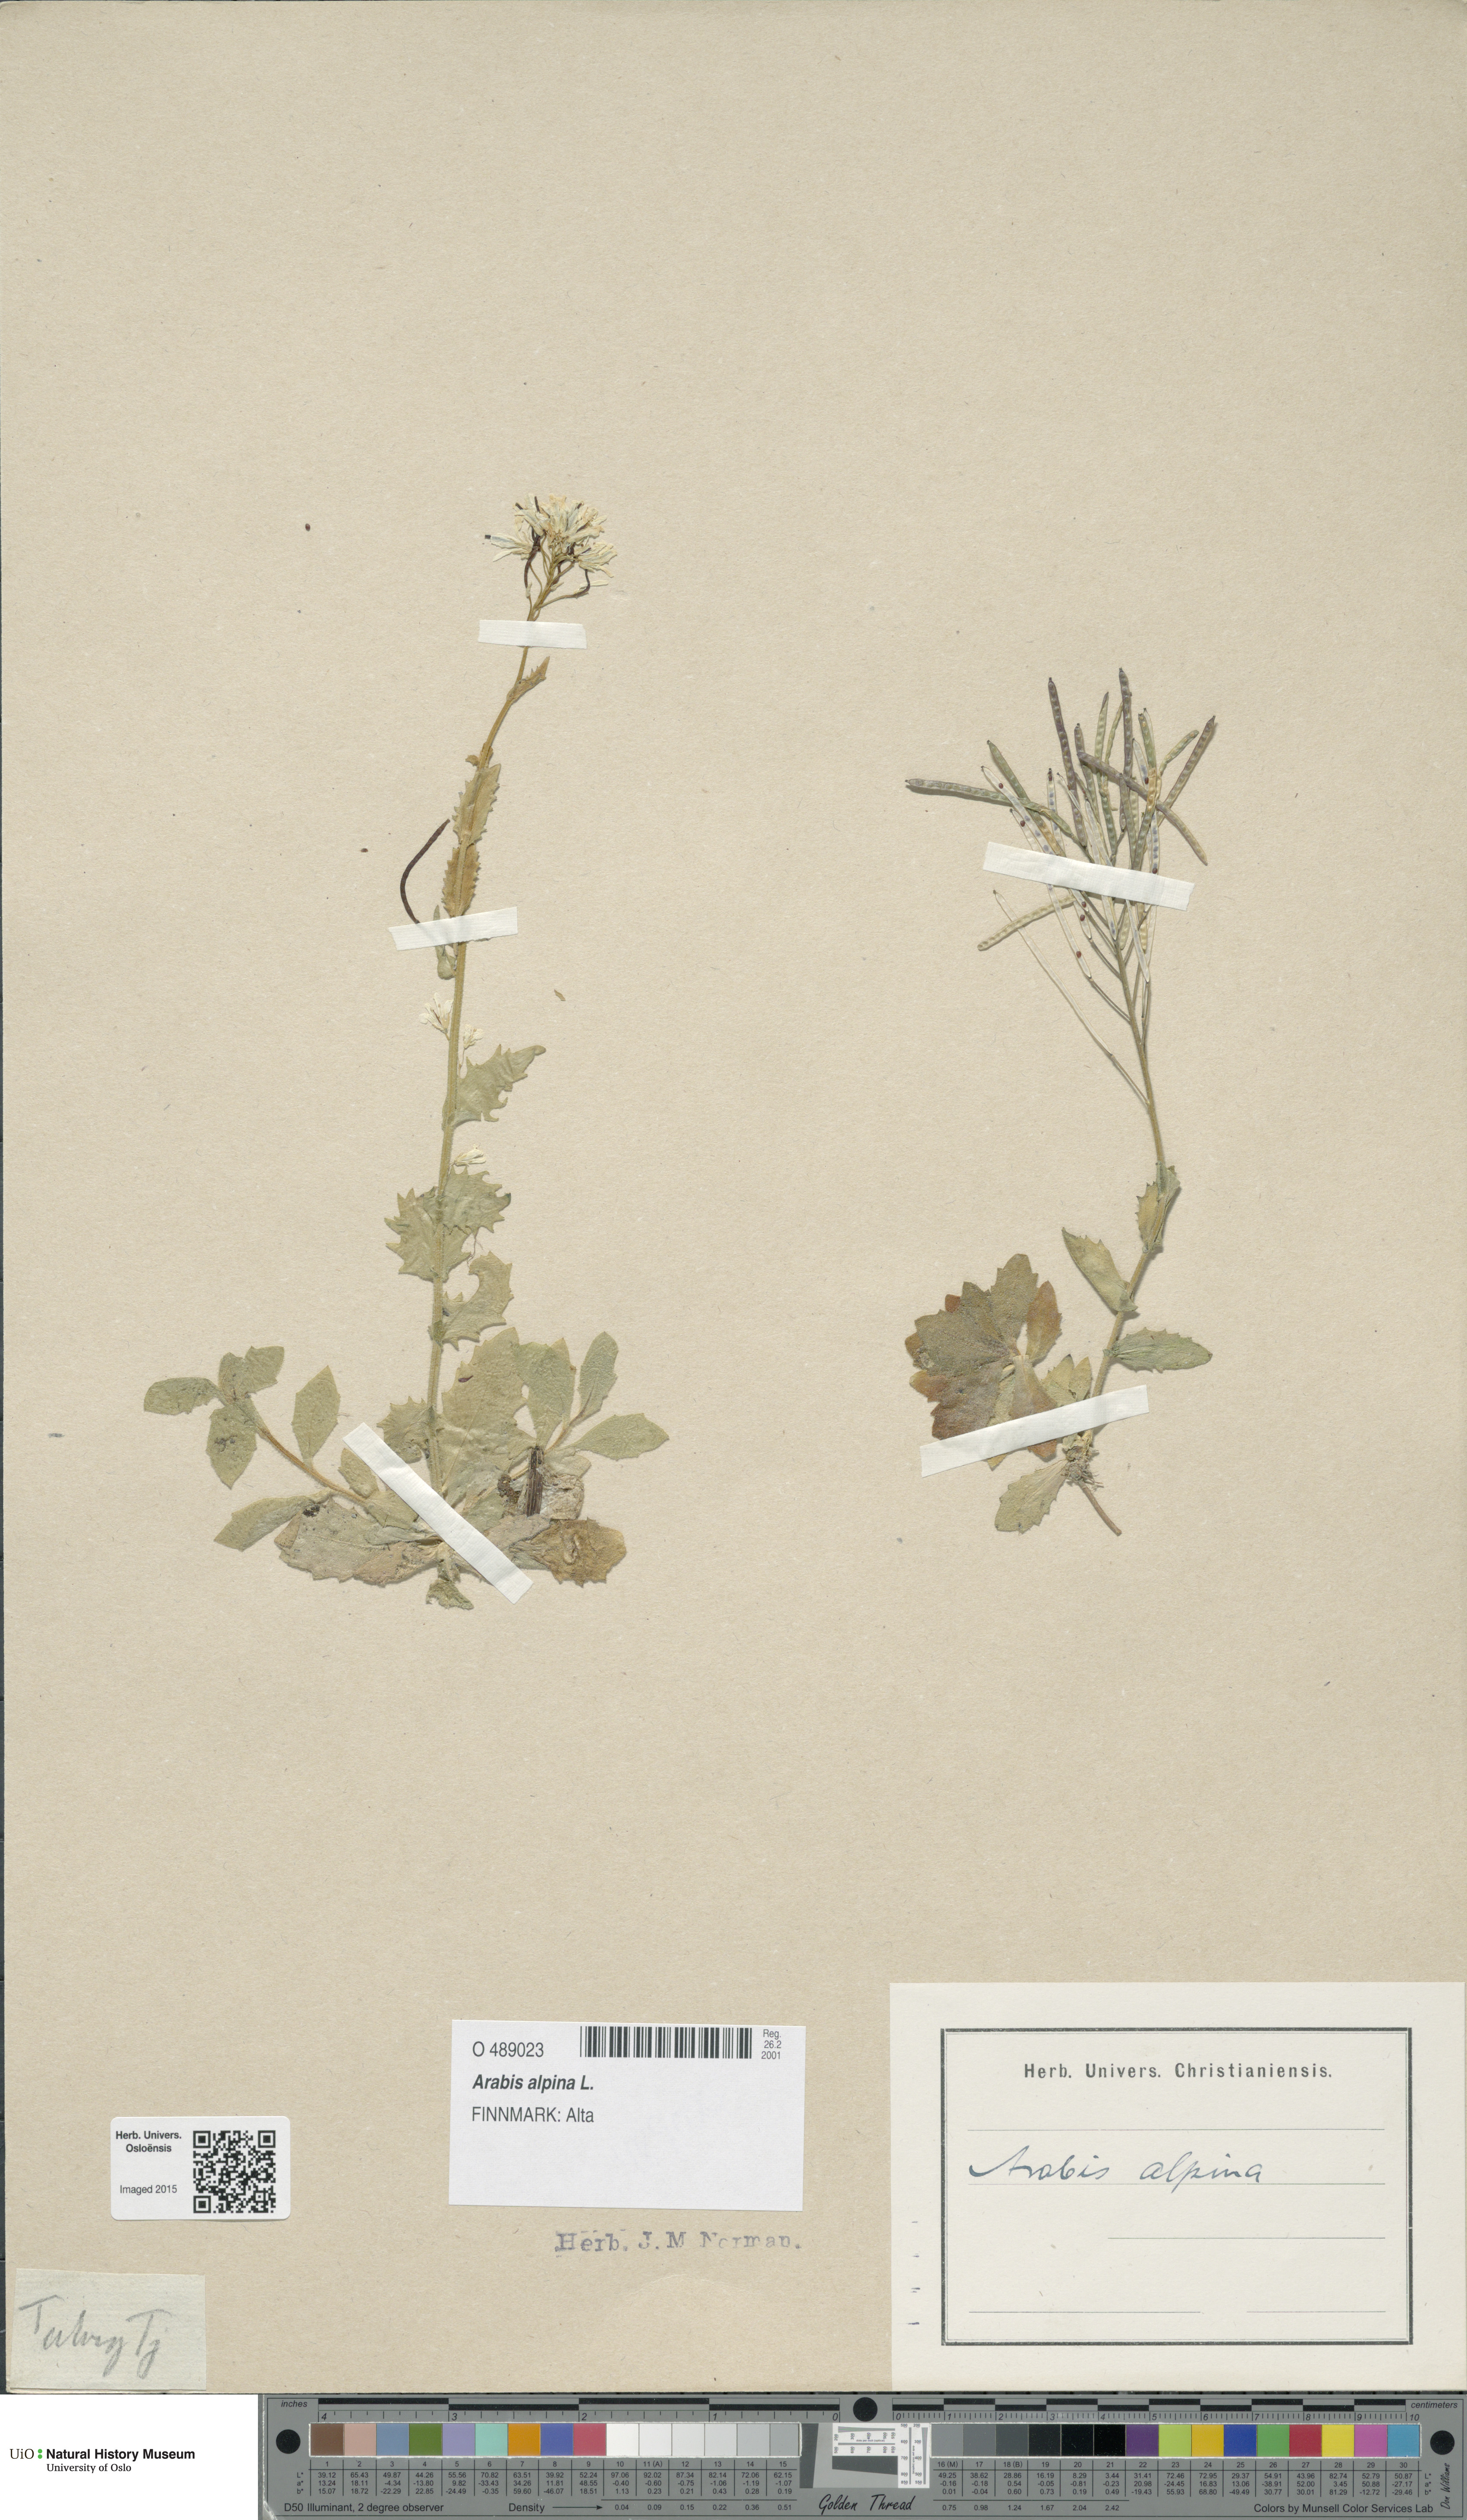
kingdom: Plantae
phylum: Tracheophyta
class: Magnoliopsida
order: Brassicales
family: Brassicaceae
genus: Arabis
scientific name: Arabis alpina
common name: Alpine rock-cress
